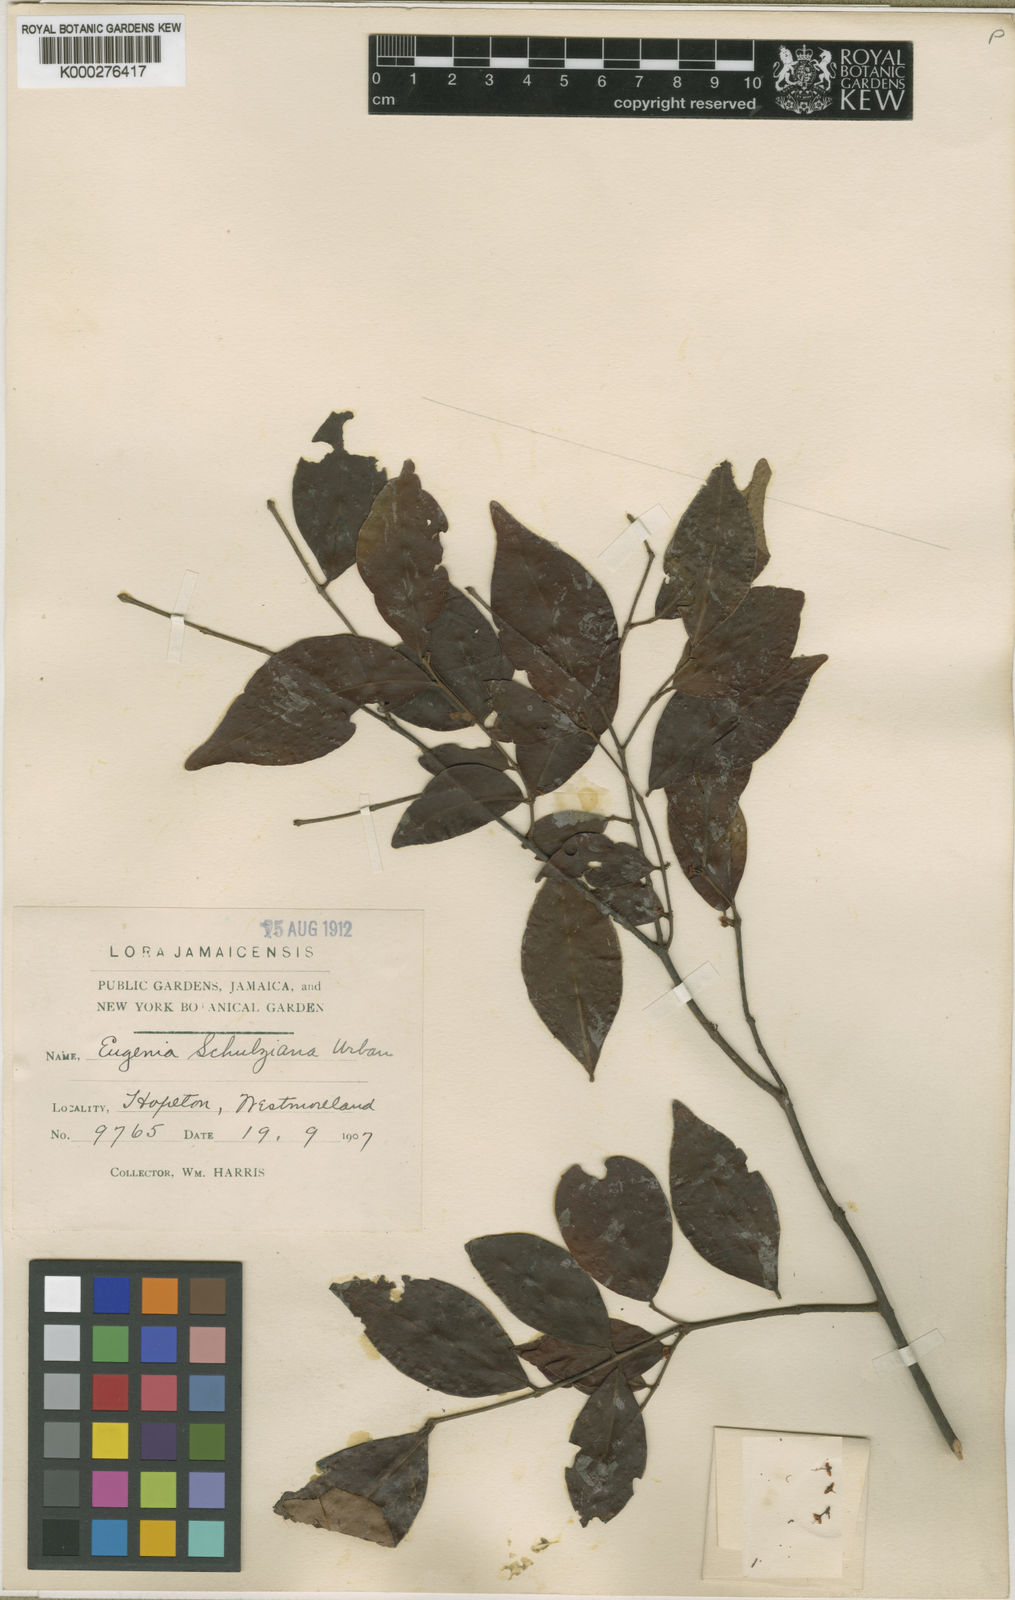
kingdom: Plantae
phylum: Tracheophyta
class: Magnoliopsida
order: Myrtales
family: Myrtaceae
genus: Eugenia
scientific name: Eugenia schulziana
